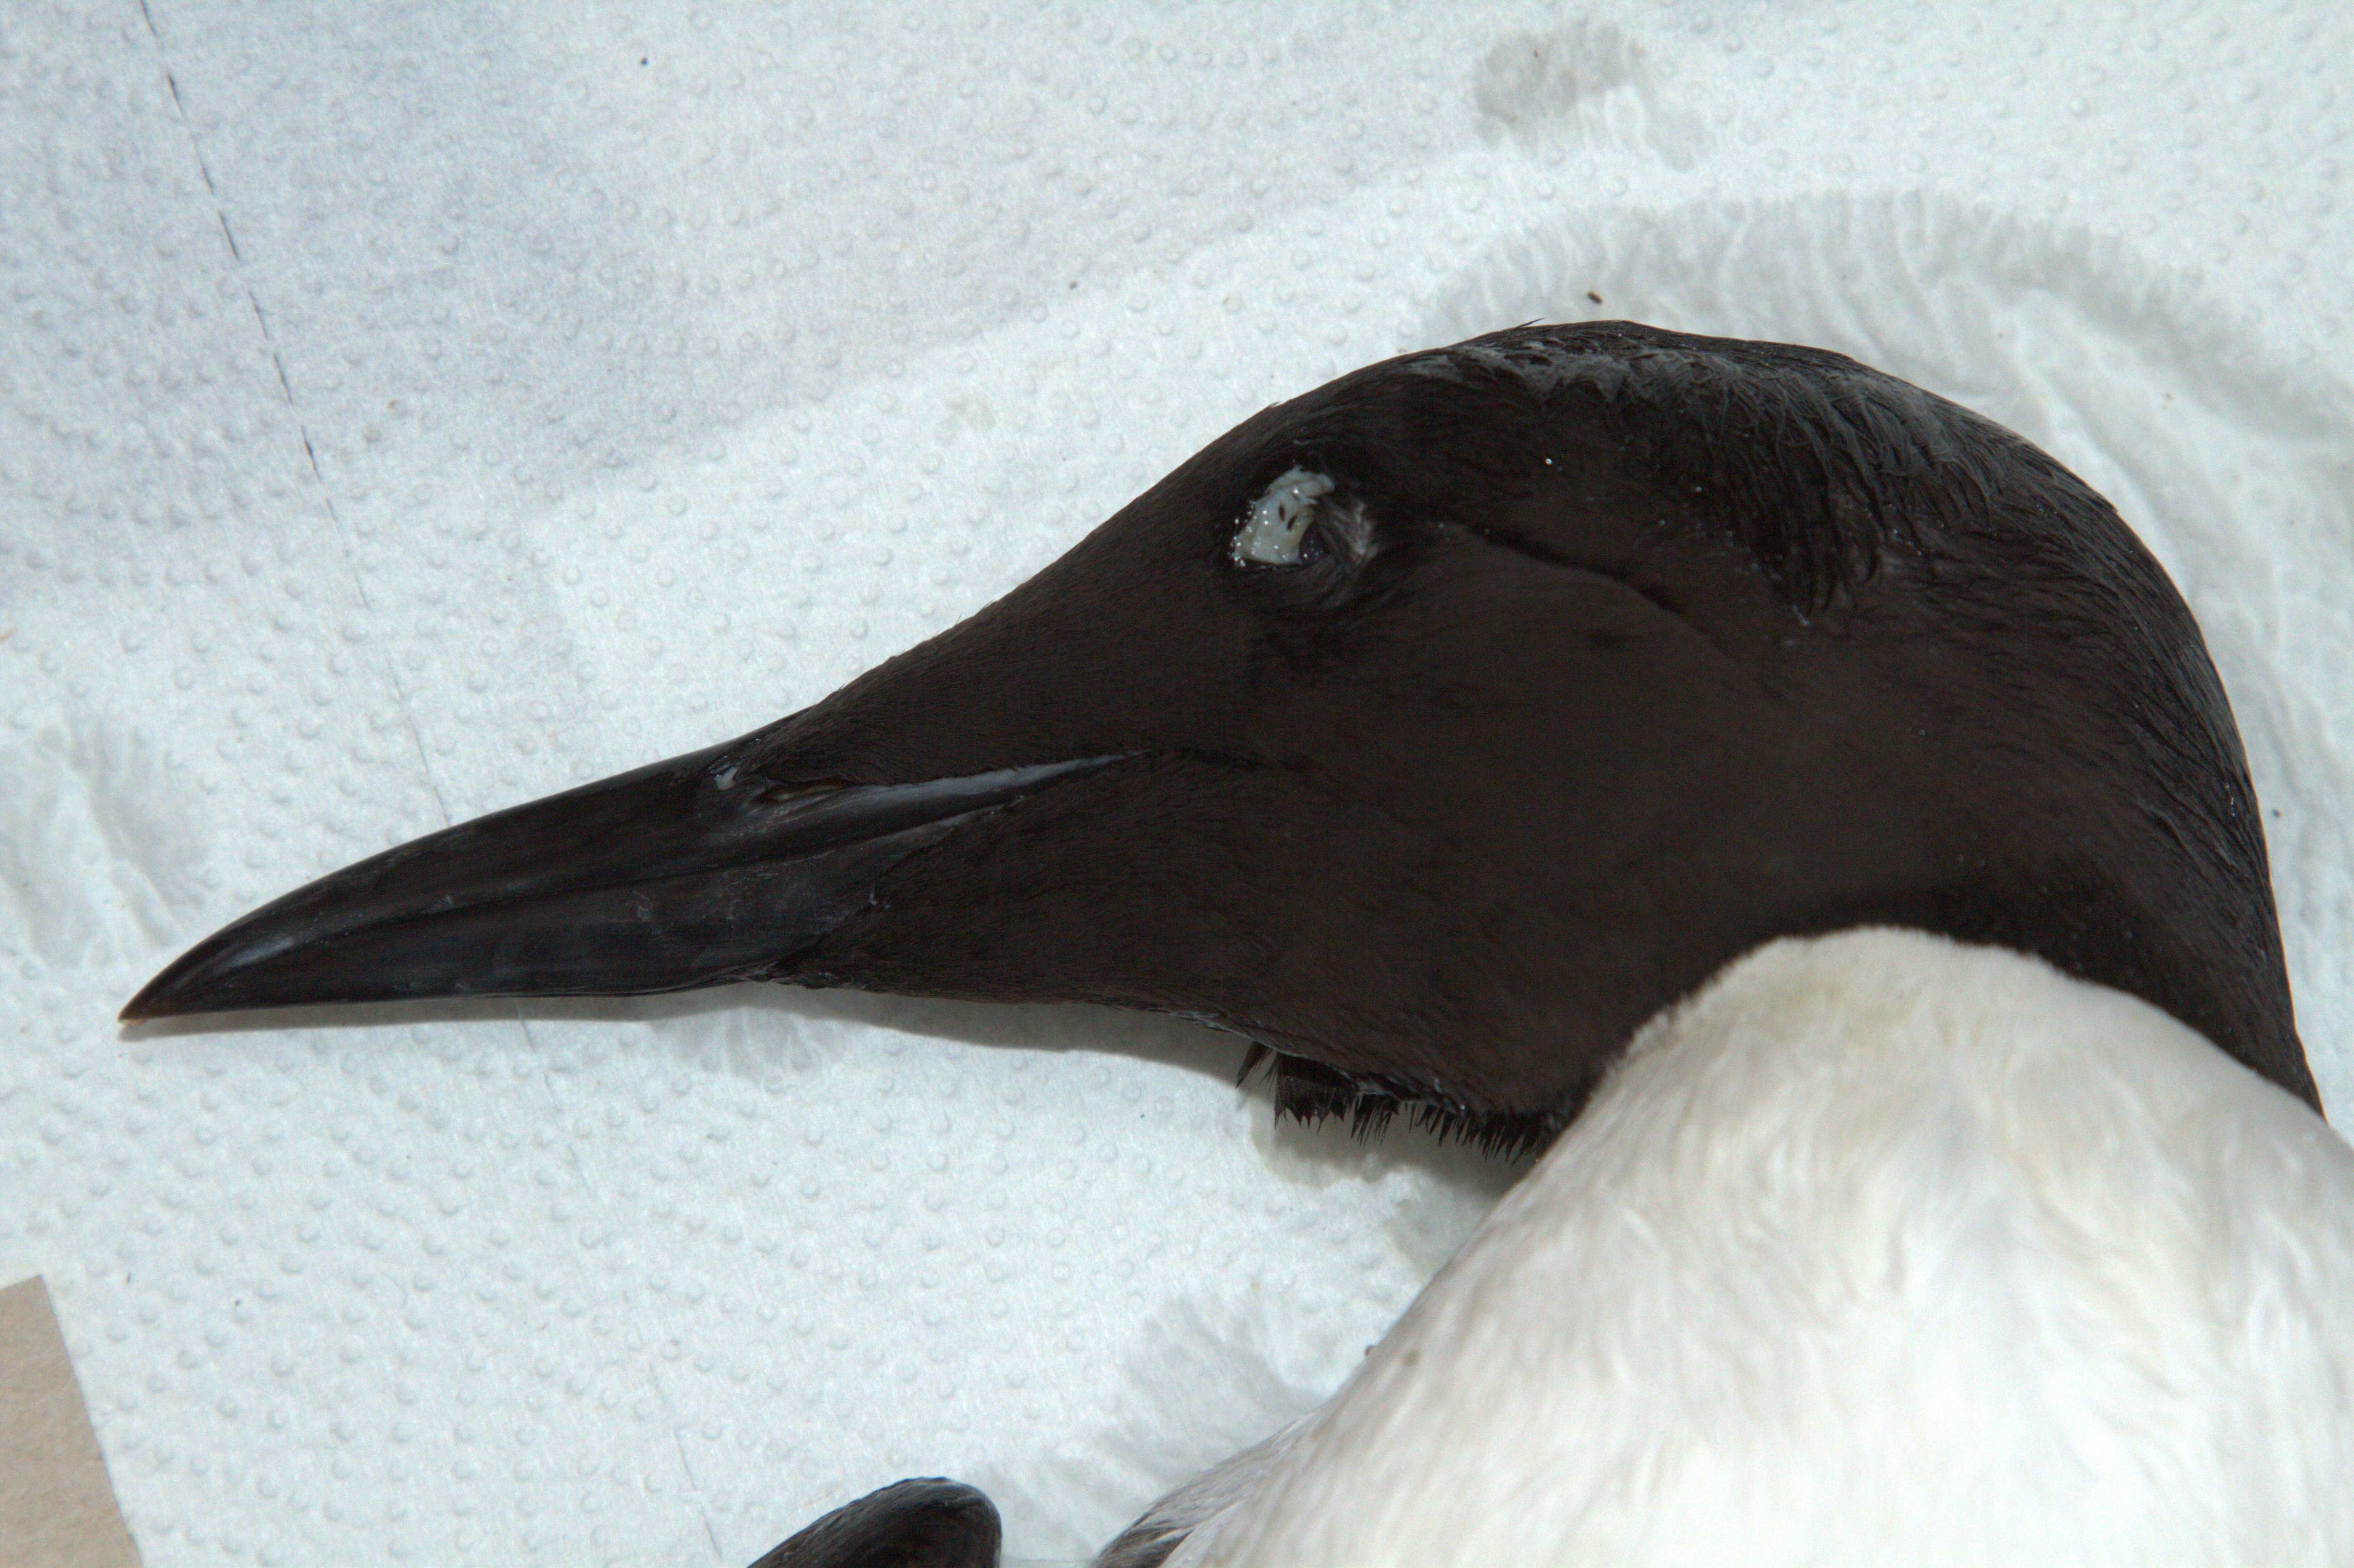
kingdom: Animalia
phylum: Chordata
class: Aves
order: Charadriiformes
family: Alcidae
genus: Uria
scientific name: Uria aalge
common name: Common murre
